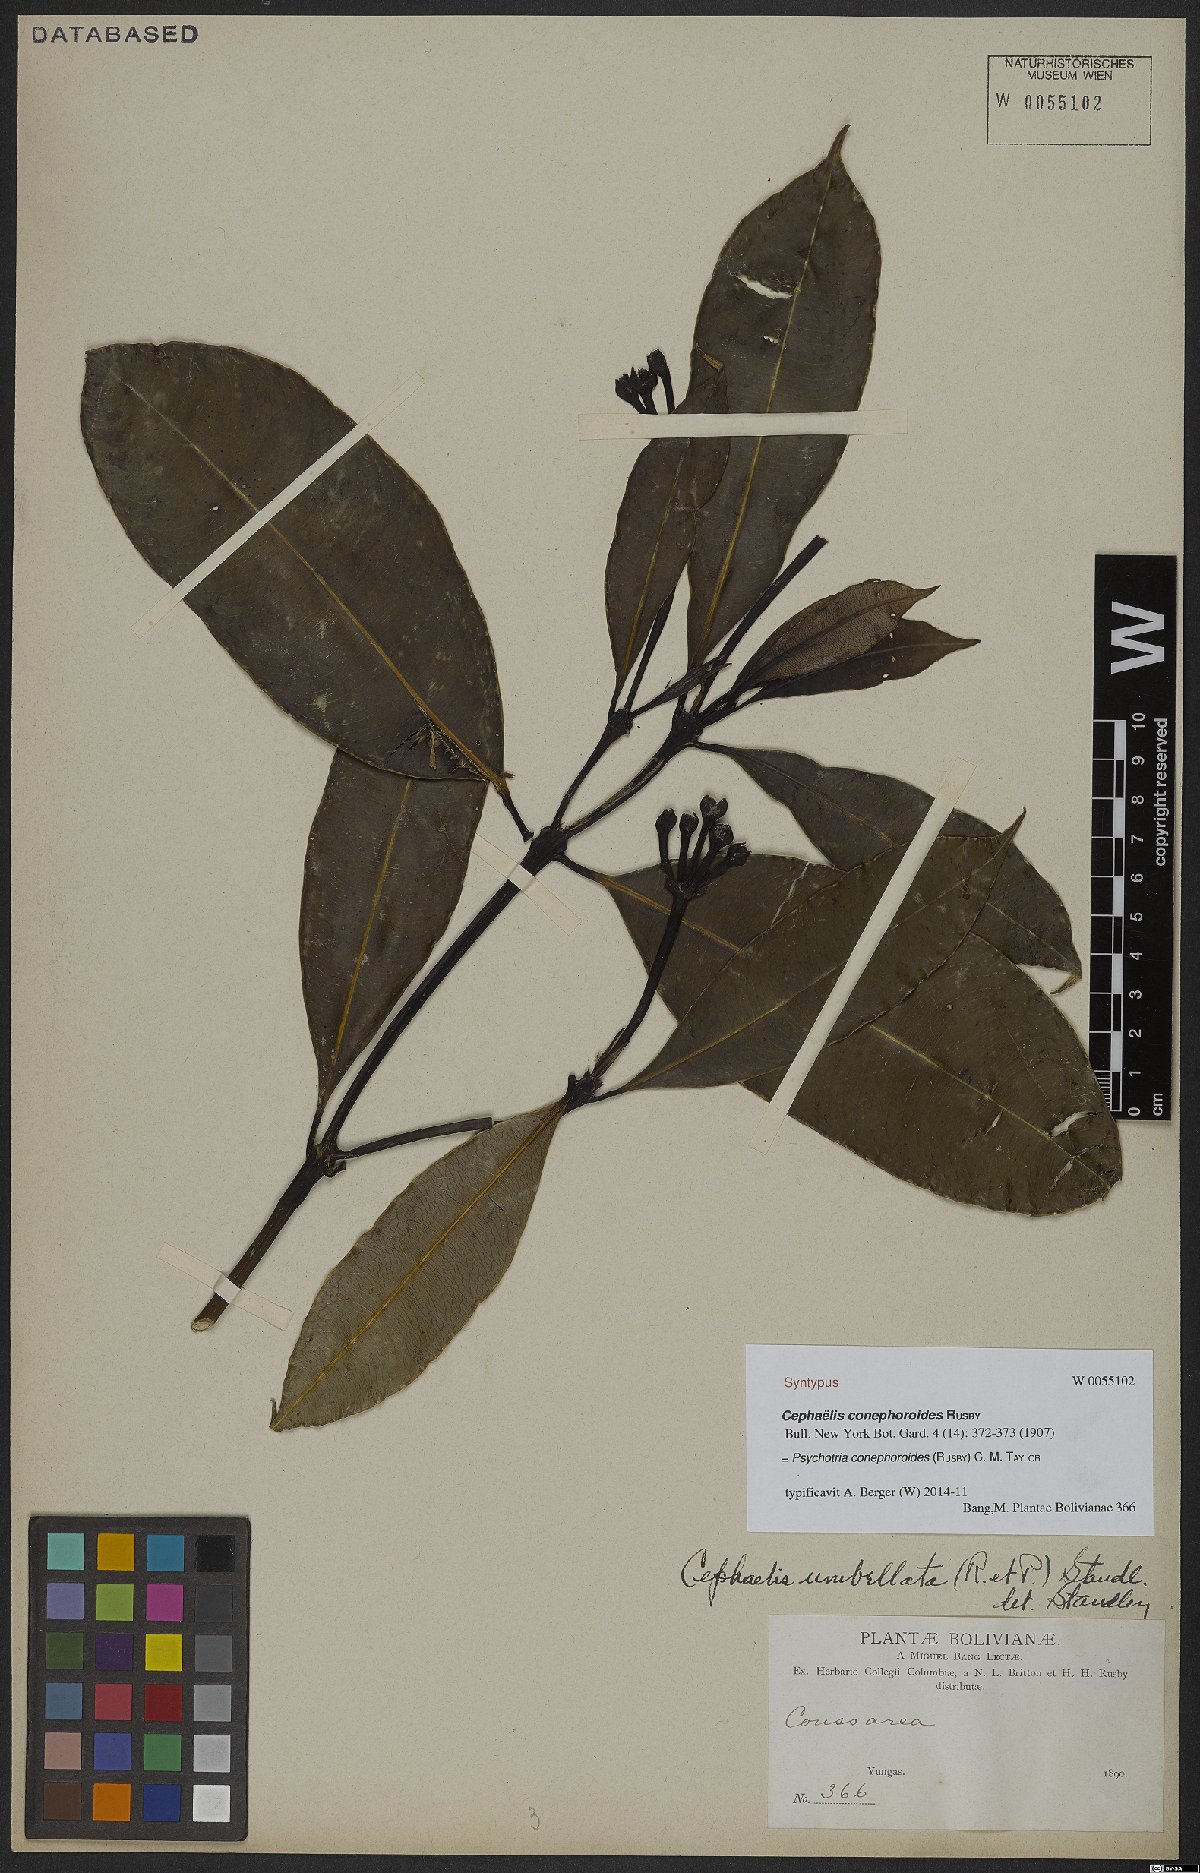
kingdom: Plantae
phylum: Tracheophyta
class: Magnoliopsida
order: Gentianales
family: Rubiaceae
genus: Palicourea
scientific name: Palicourea conephoroides
